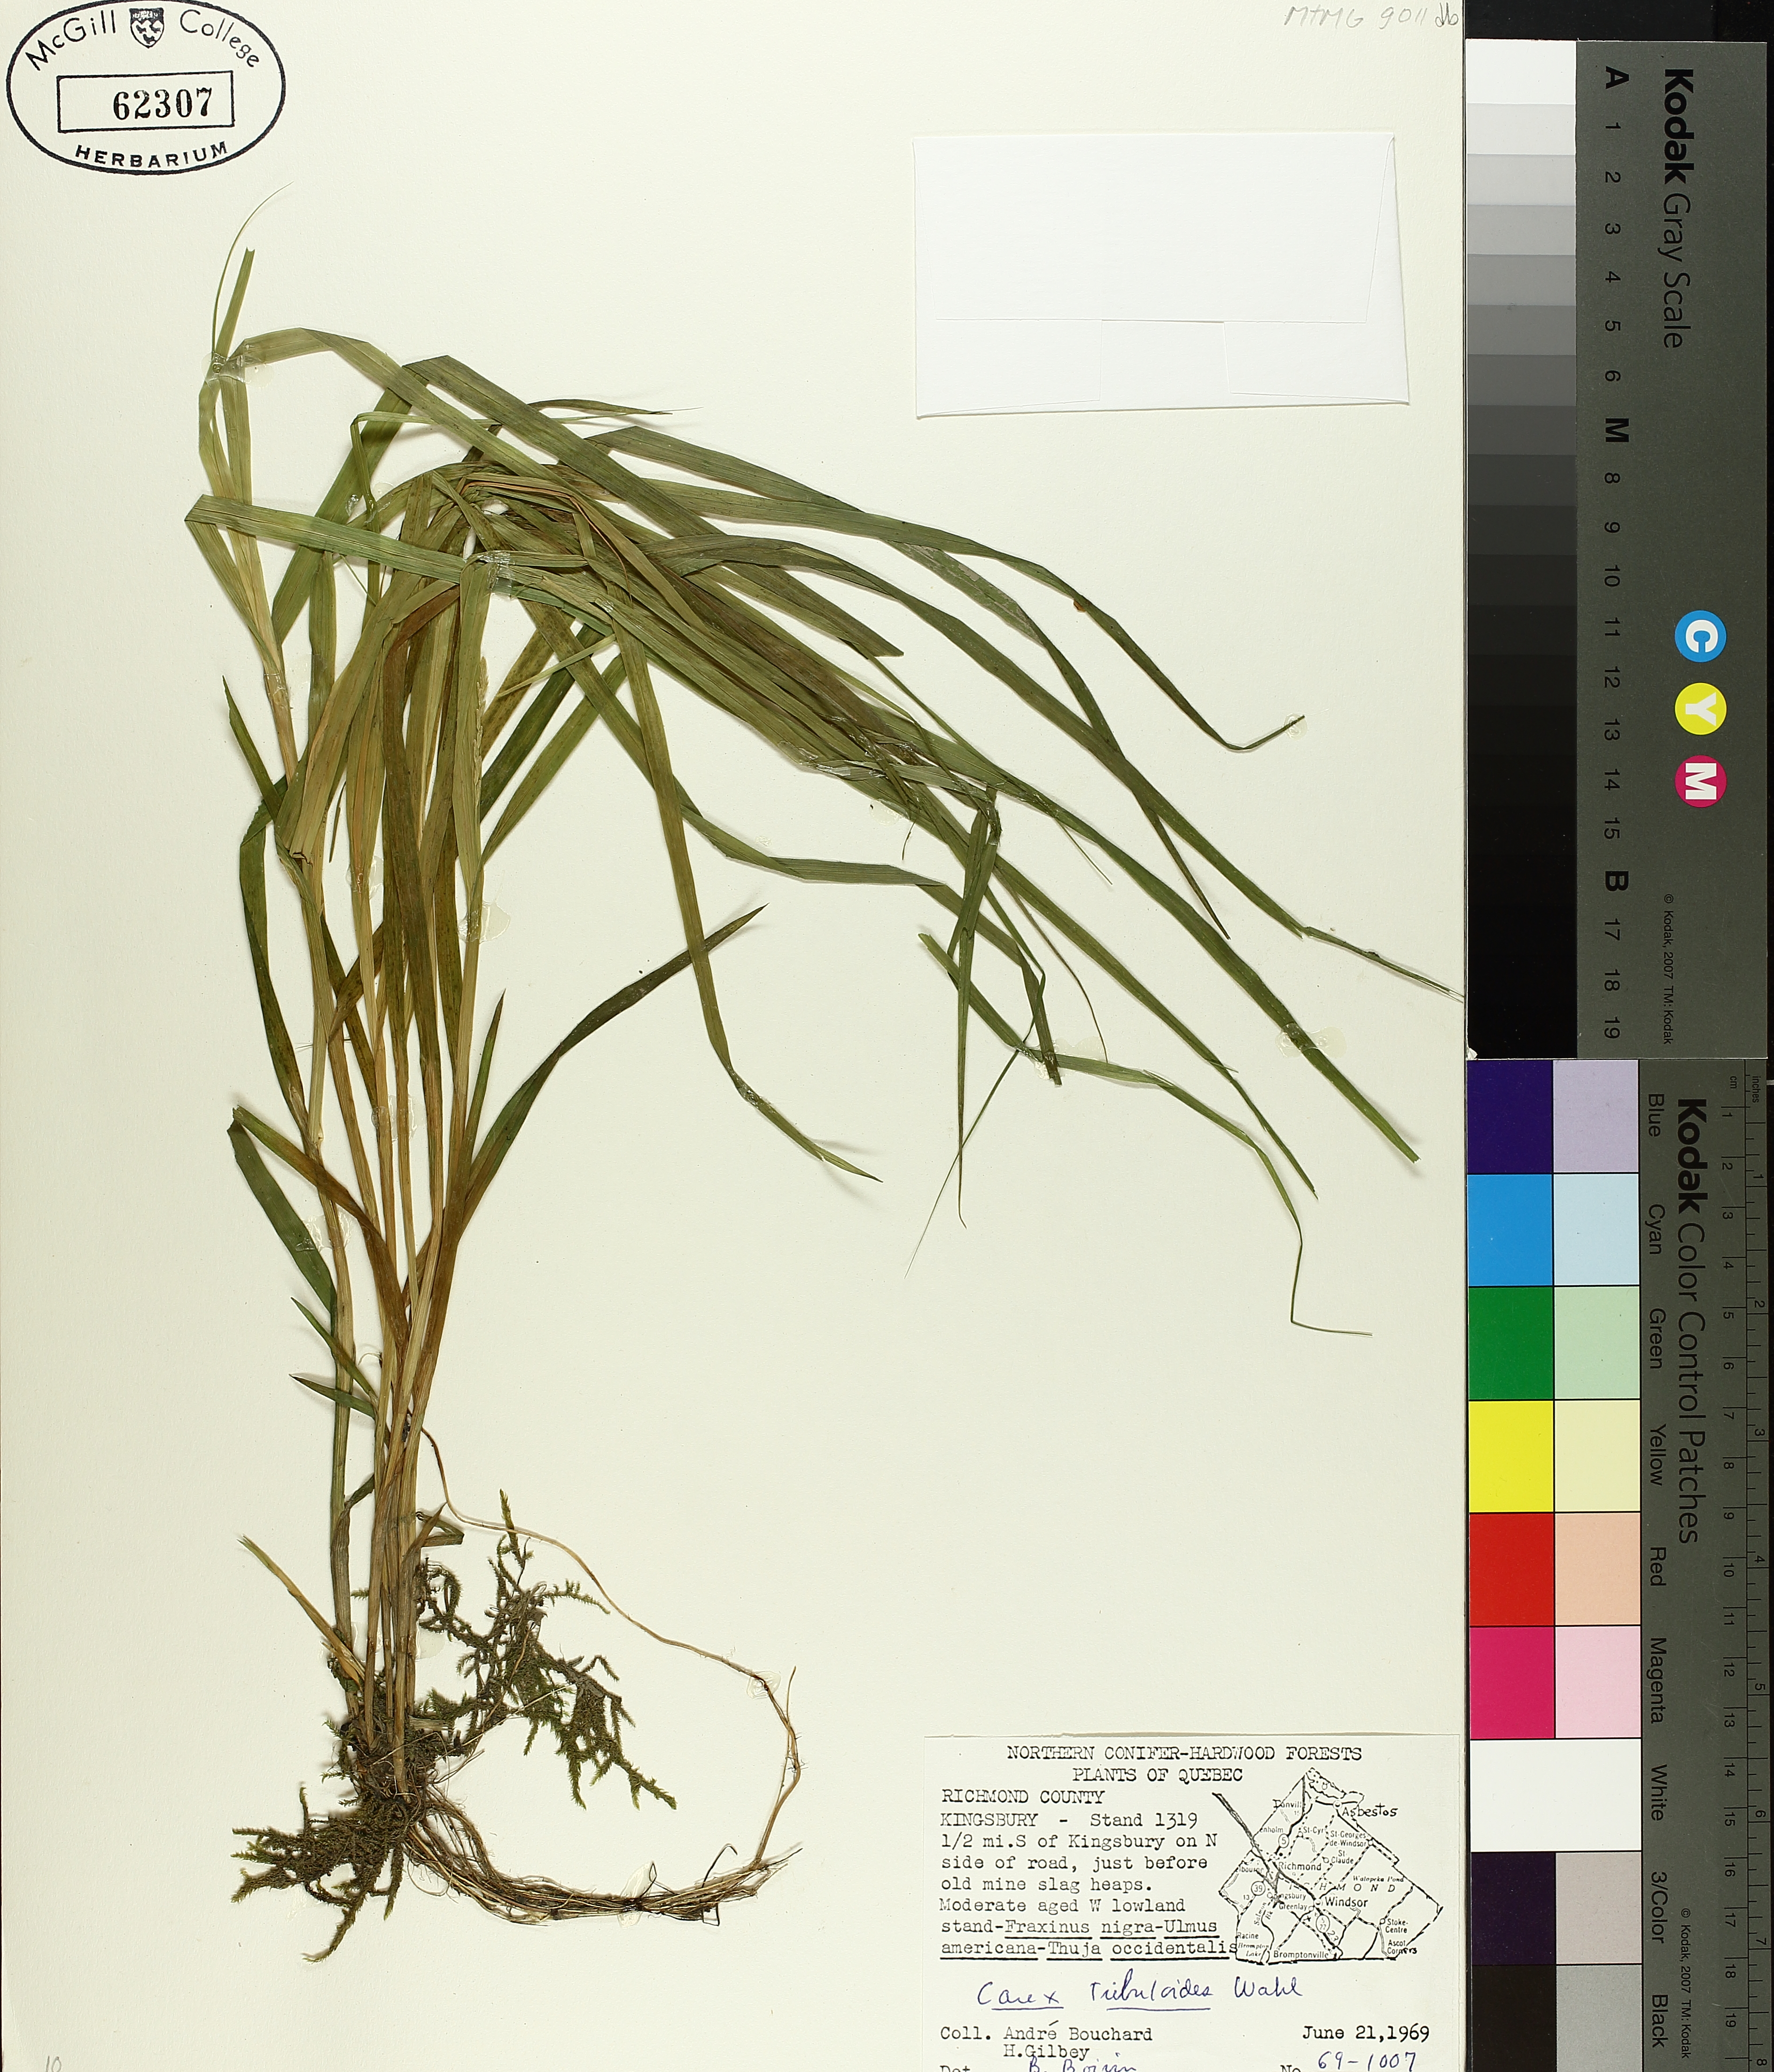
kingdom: Plantae
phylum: Tracheophyta
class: Liliopsida
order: Poales
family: Cyperaceae
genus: Carex
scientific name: Carex tribuloides
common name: Blunt broom sedge
